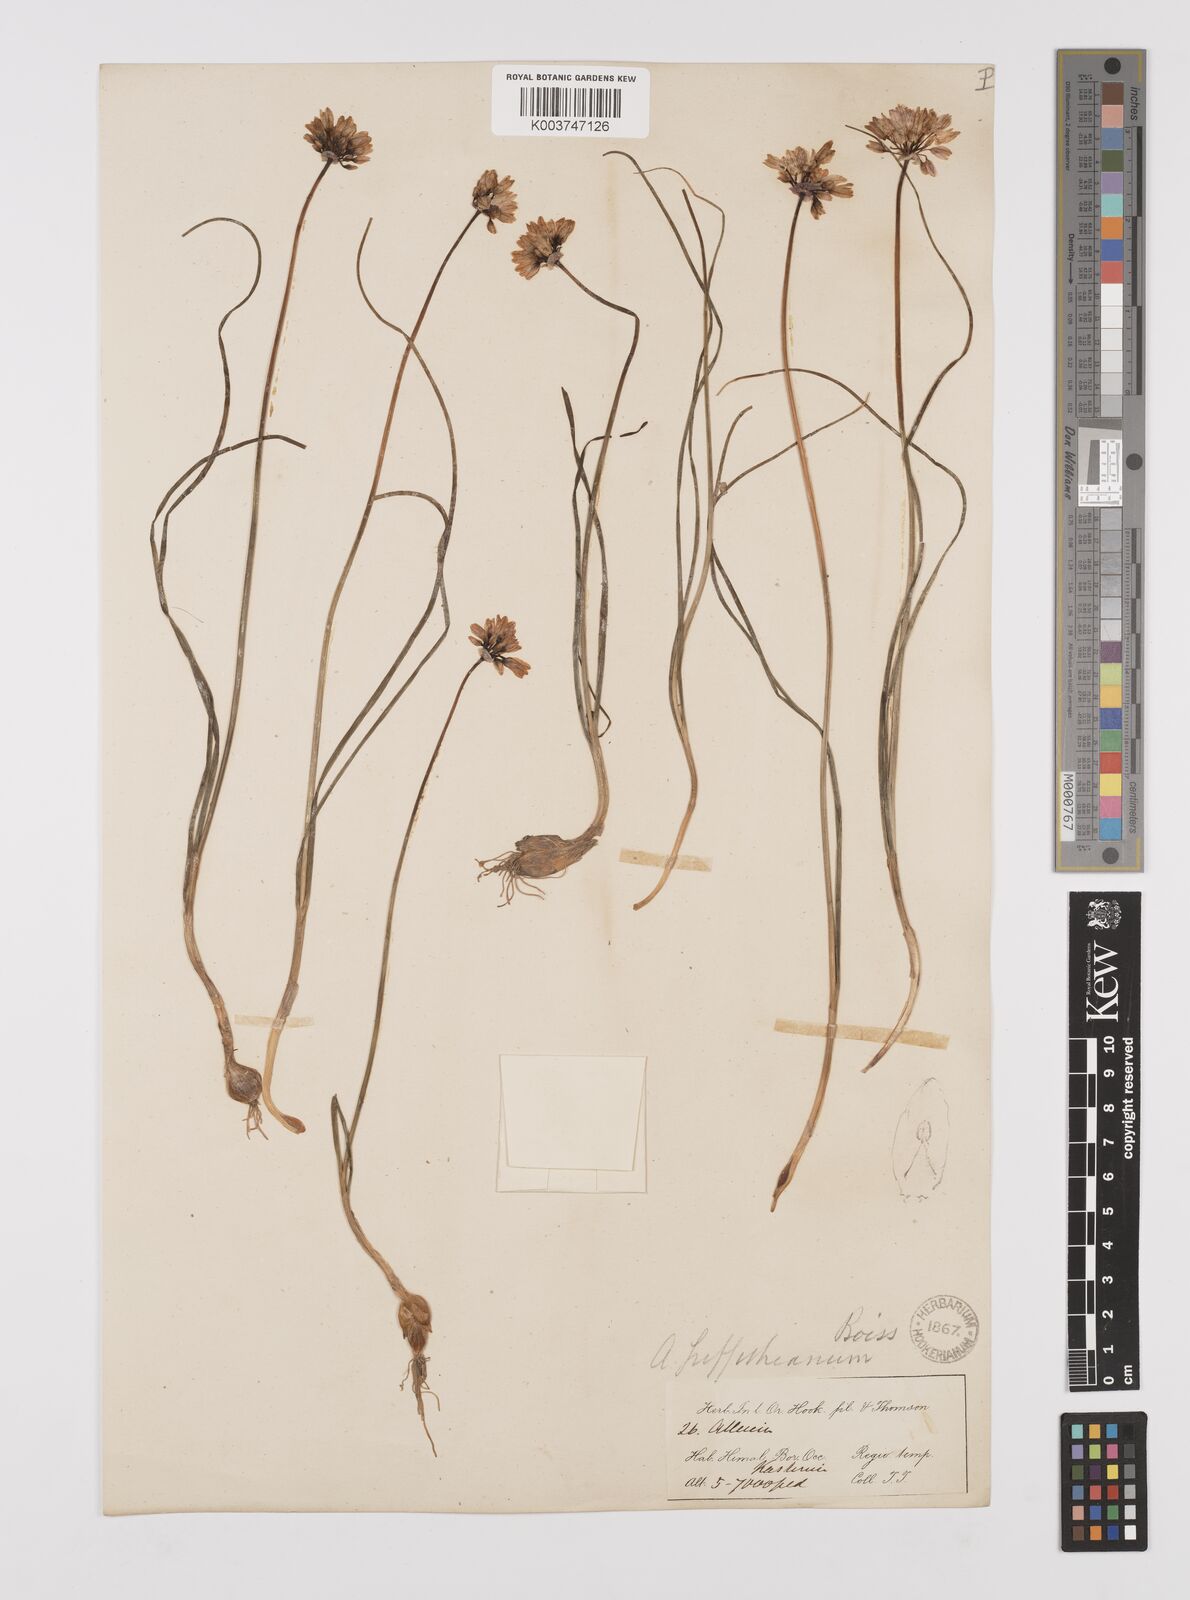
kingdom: Plantae
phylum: Tracheophyta
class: Liliopsida
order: Asparagales
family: Amaryllidaceae
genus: Allium
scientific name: Allium griffithianum
